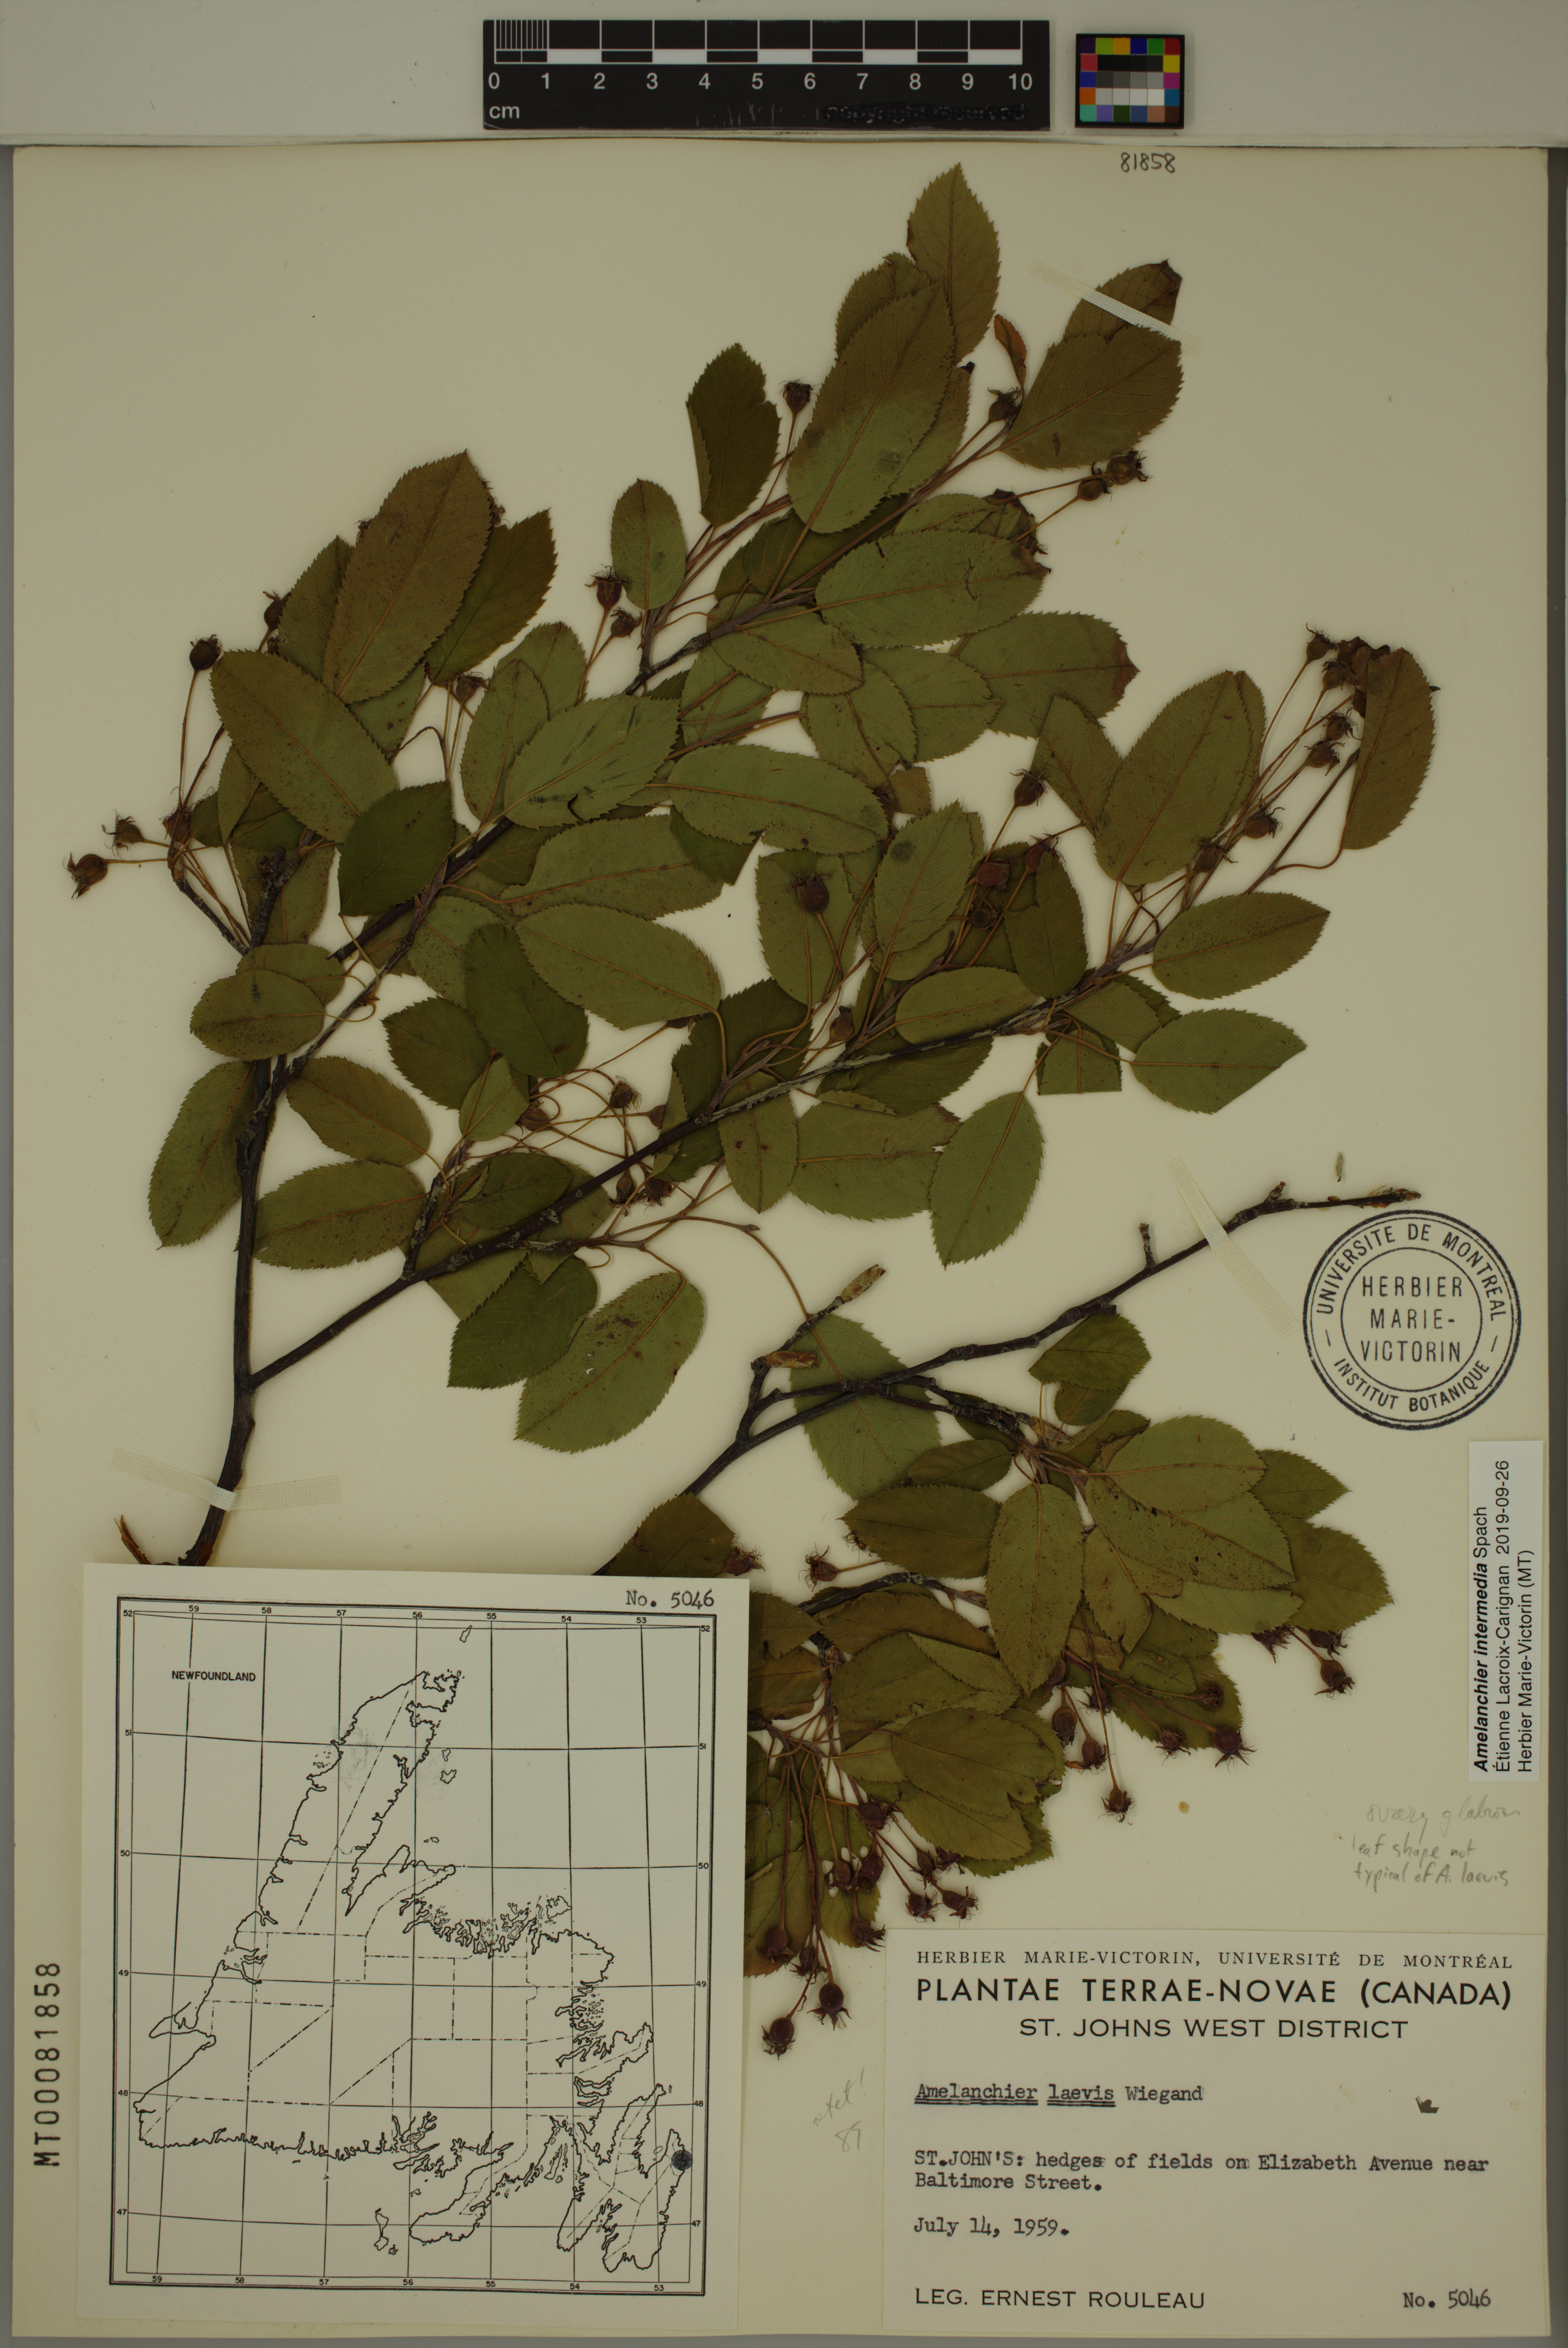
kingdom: Plantae
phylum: Tracheophyta
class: Magnoliopsida
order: Rosales
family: Rosaceae
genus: Amelanchier
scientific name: Amelanchier intermedia
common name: Intermediate shadbush
